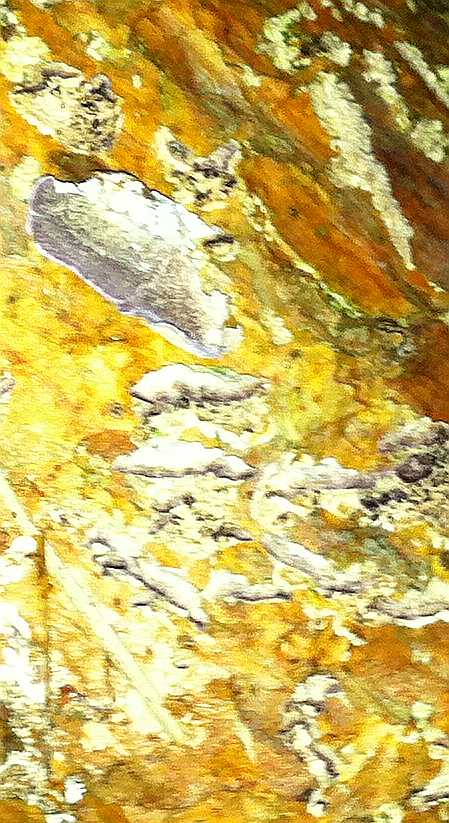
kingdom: Fungi
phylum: Basidiomycota
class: Agaricomycetes
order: Hymenochaetales
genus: Trichaptum
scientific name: Trichaptum fuscoviolaceum
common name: tandet violporesvamp
